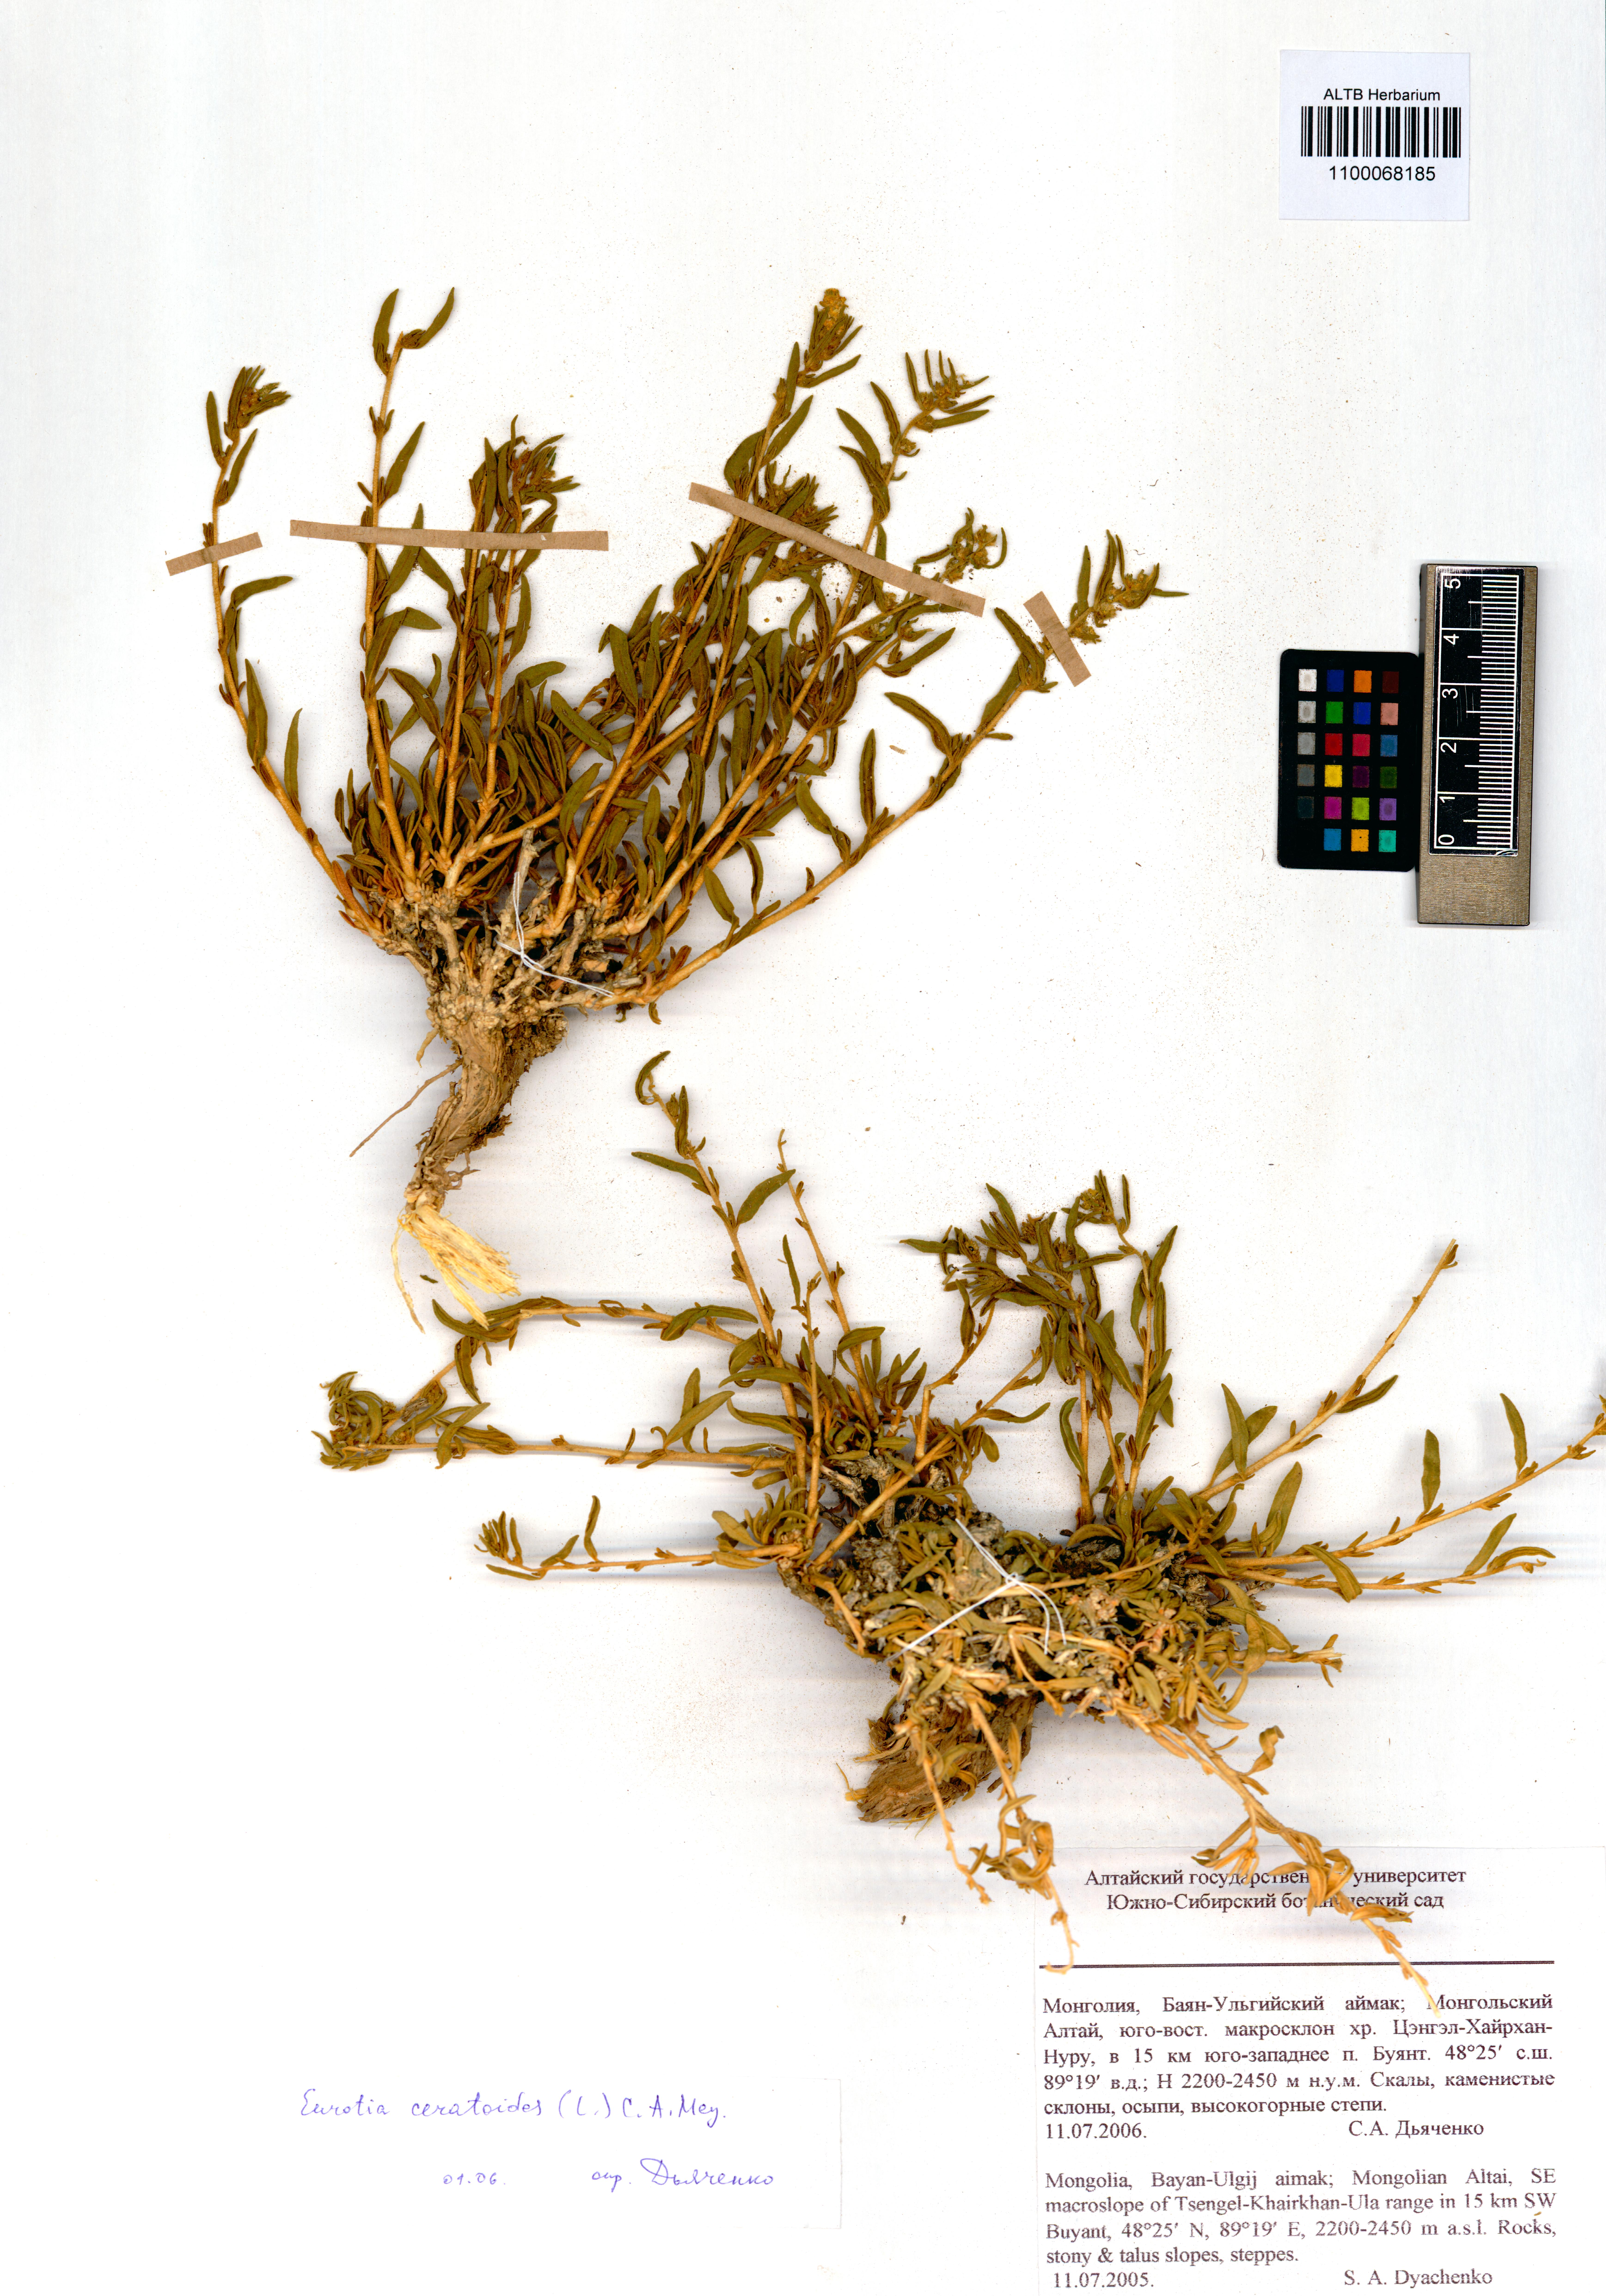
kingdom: Plantae
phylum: Tracheophyta
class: Magnoliopsida
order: Caryophyllales
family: Amaranthaceae
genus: Krascheninnikovia
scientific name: Krascheninnikovia ceratoides
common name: Pamirian winterfat
